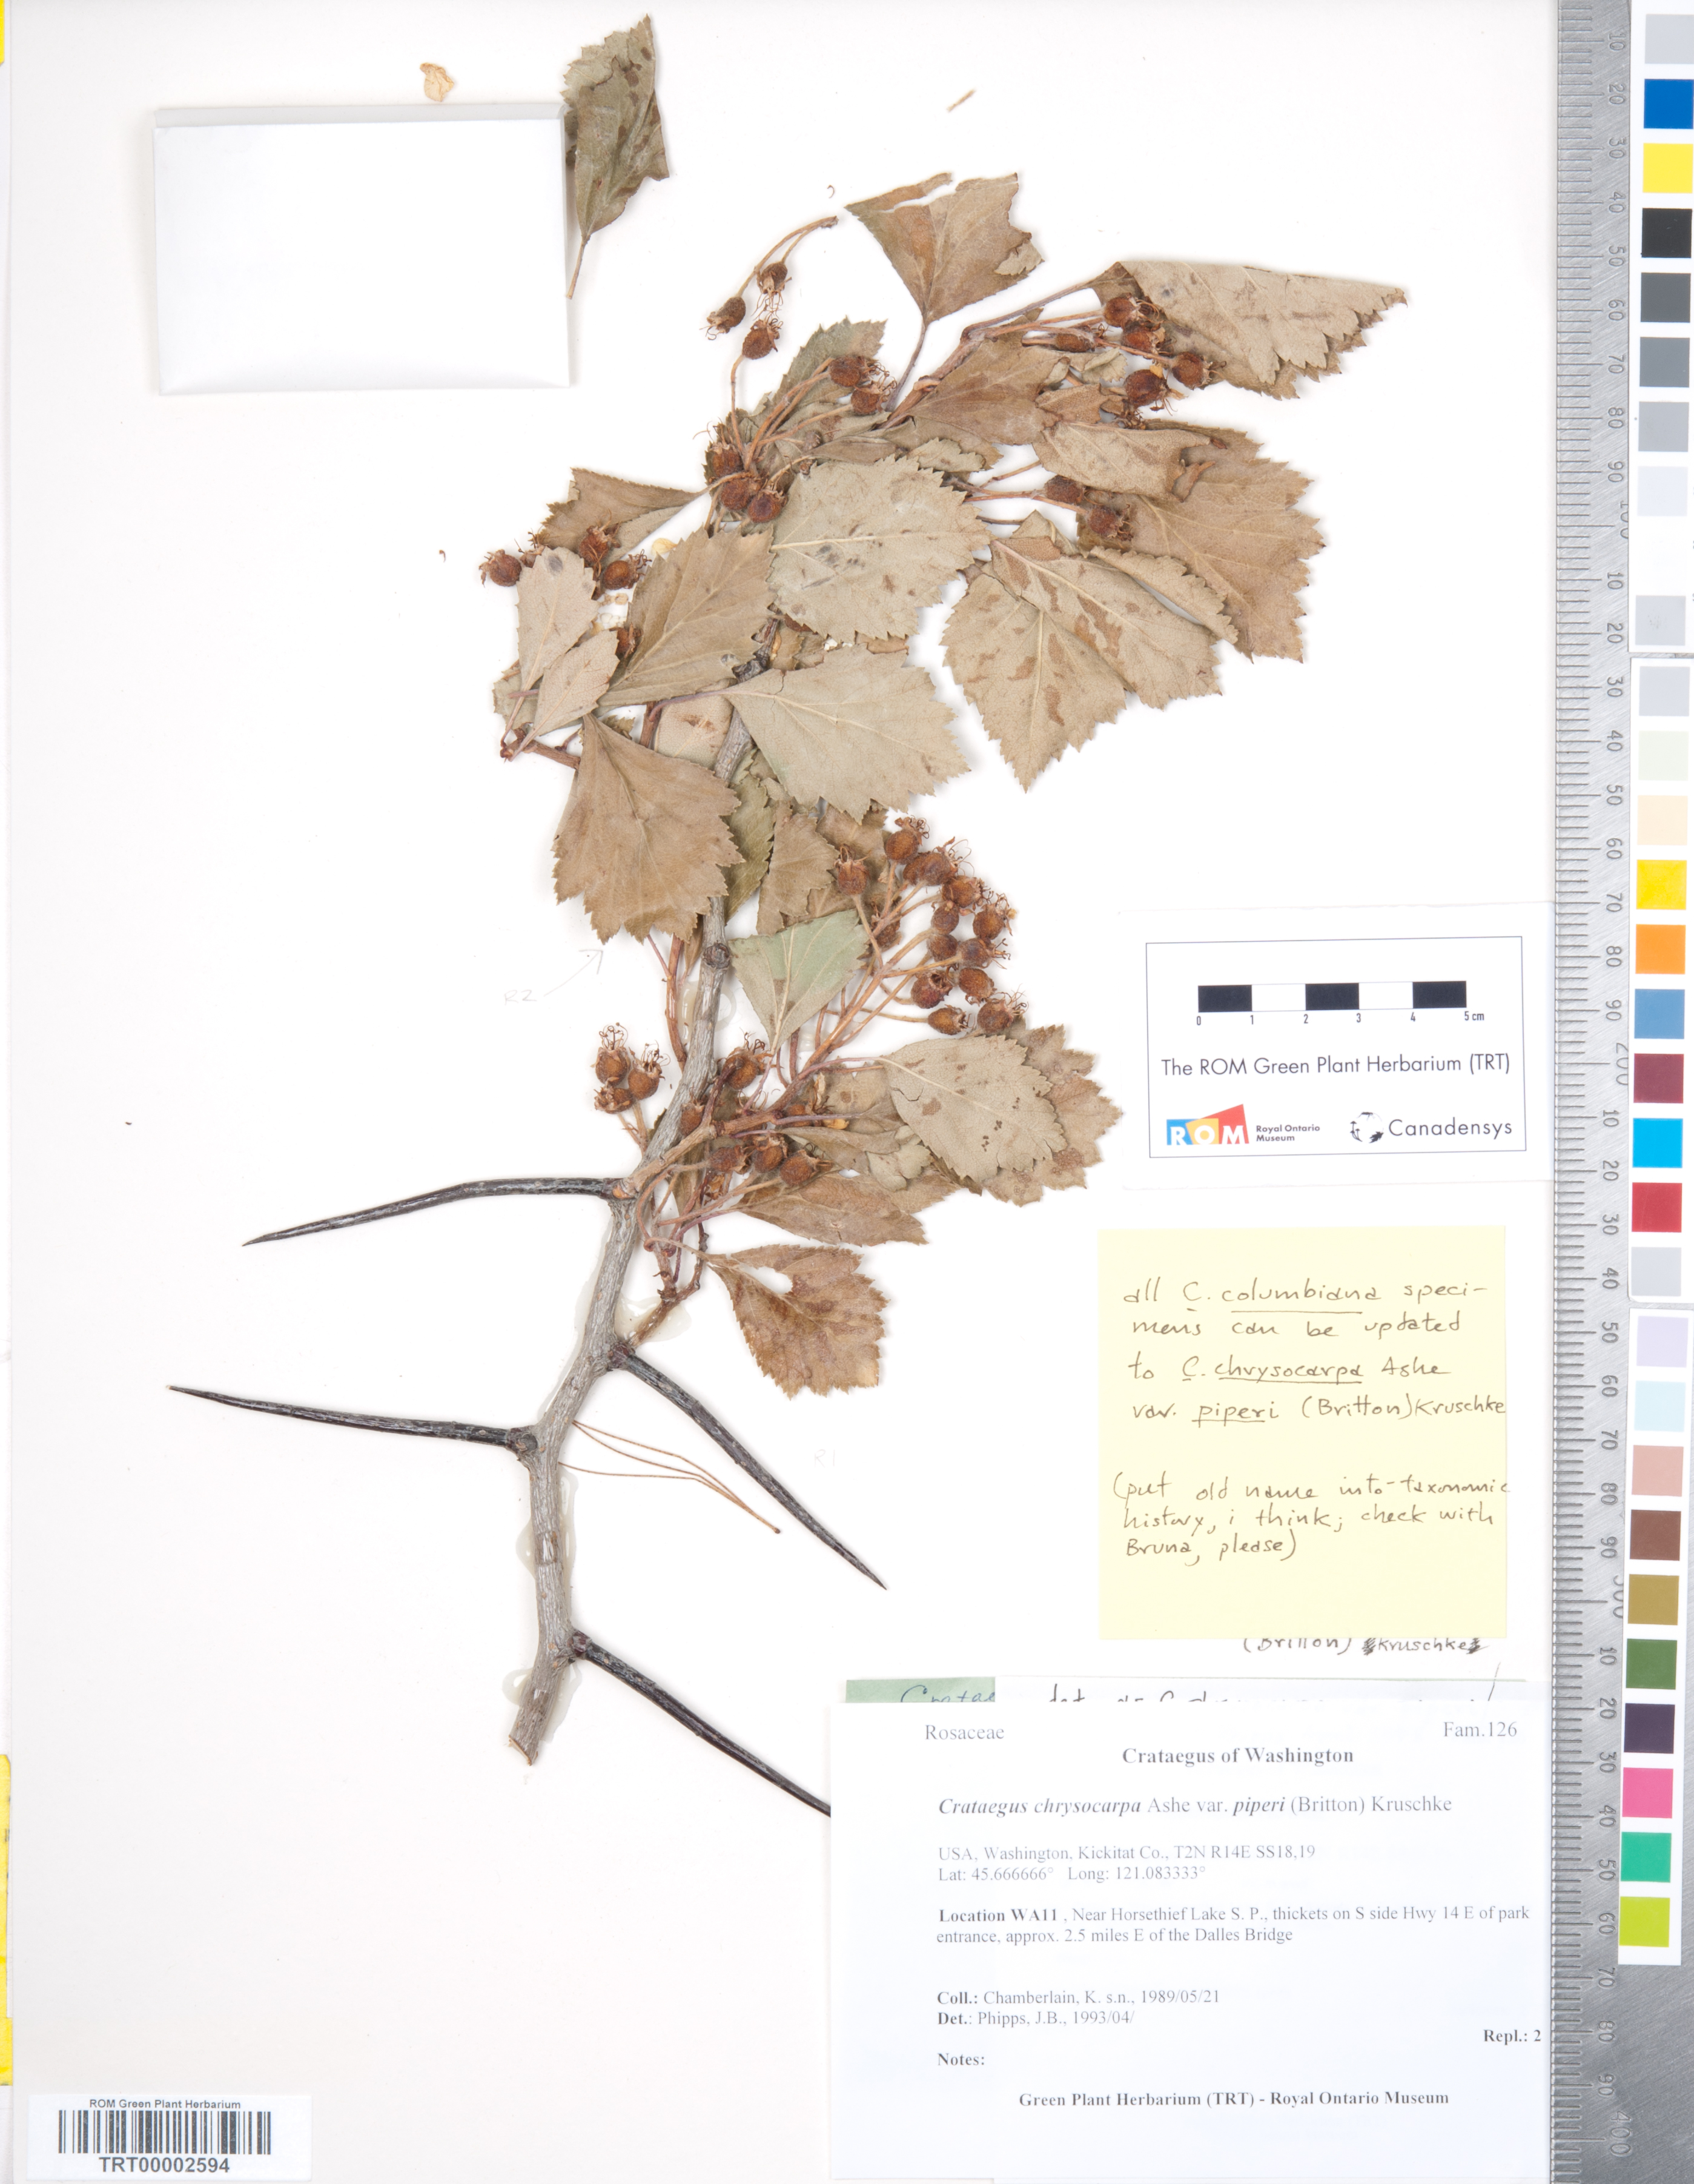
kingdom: Plantae
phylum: Tracheophyta
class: Magnoliopsida
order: Rosales
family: Rosaceae
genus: Crataegus
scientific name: Crataegus piperi
